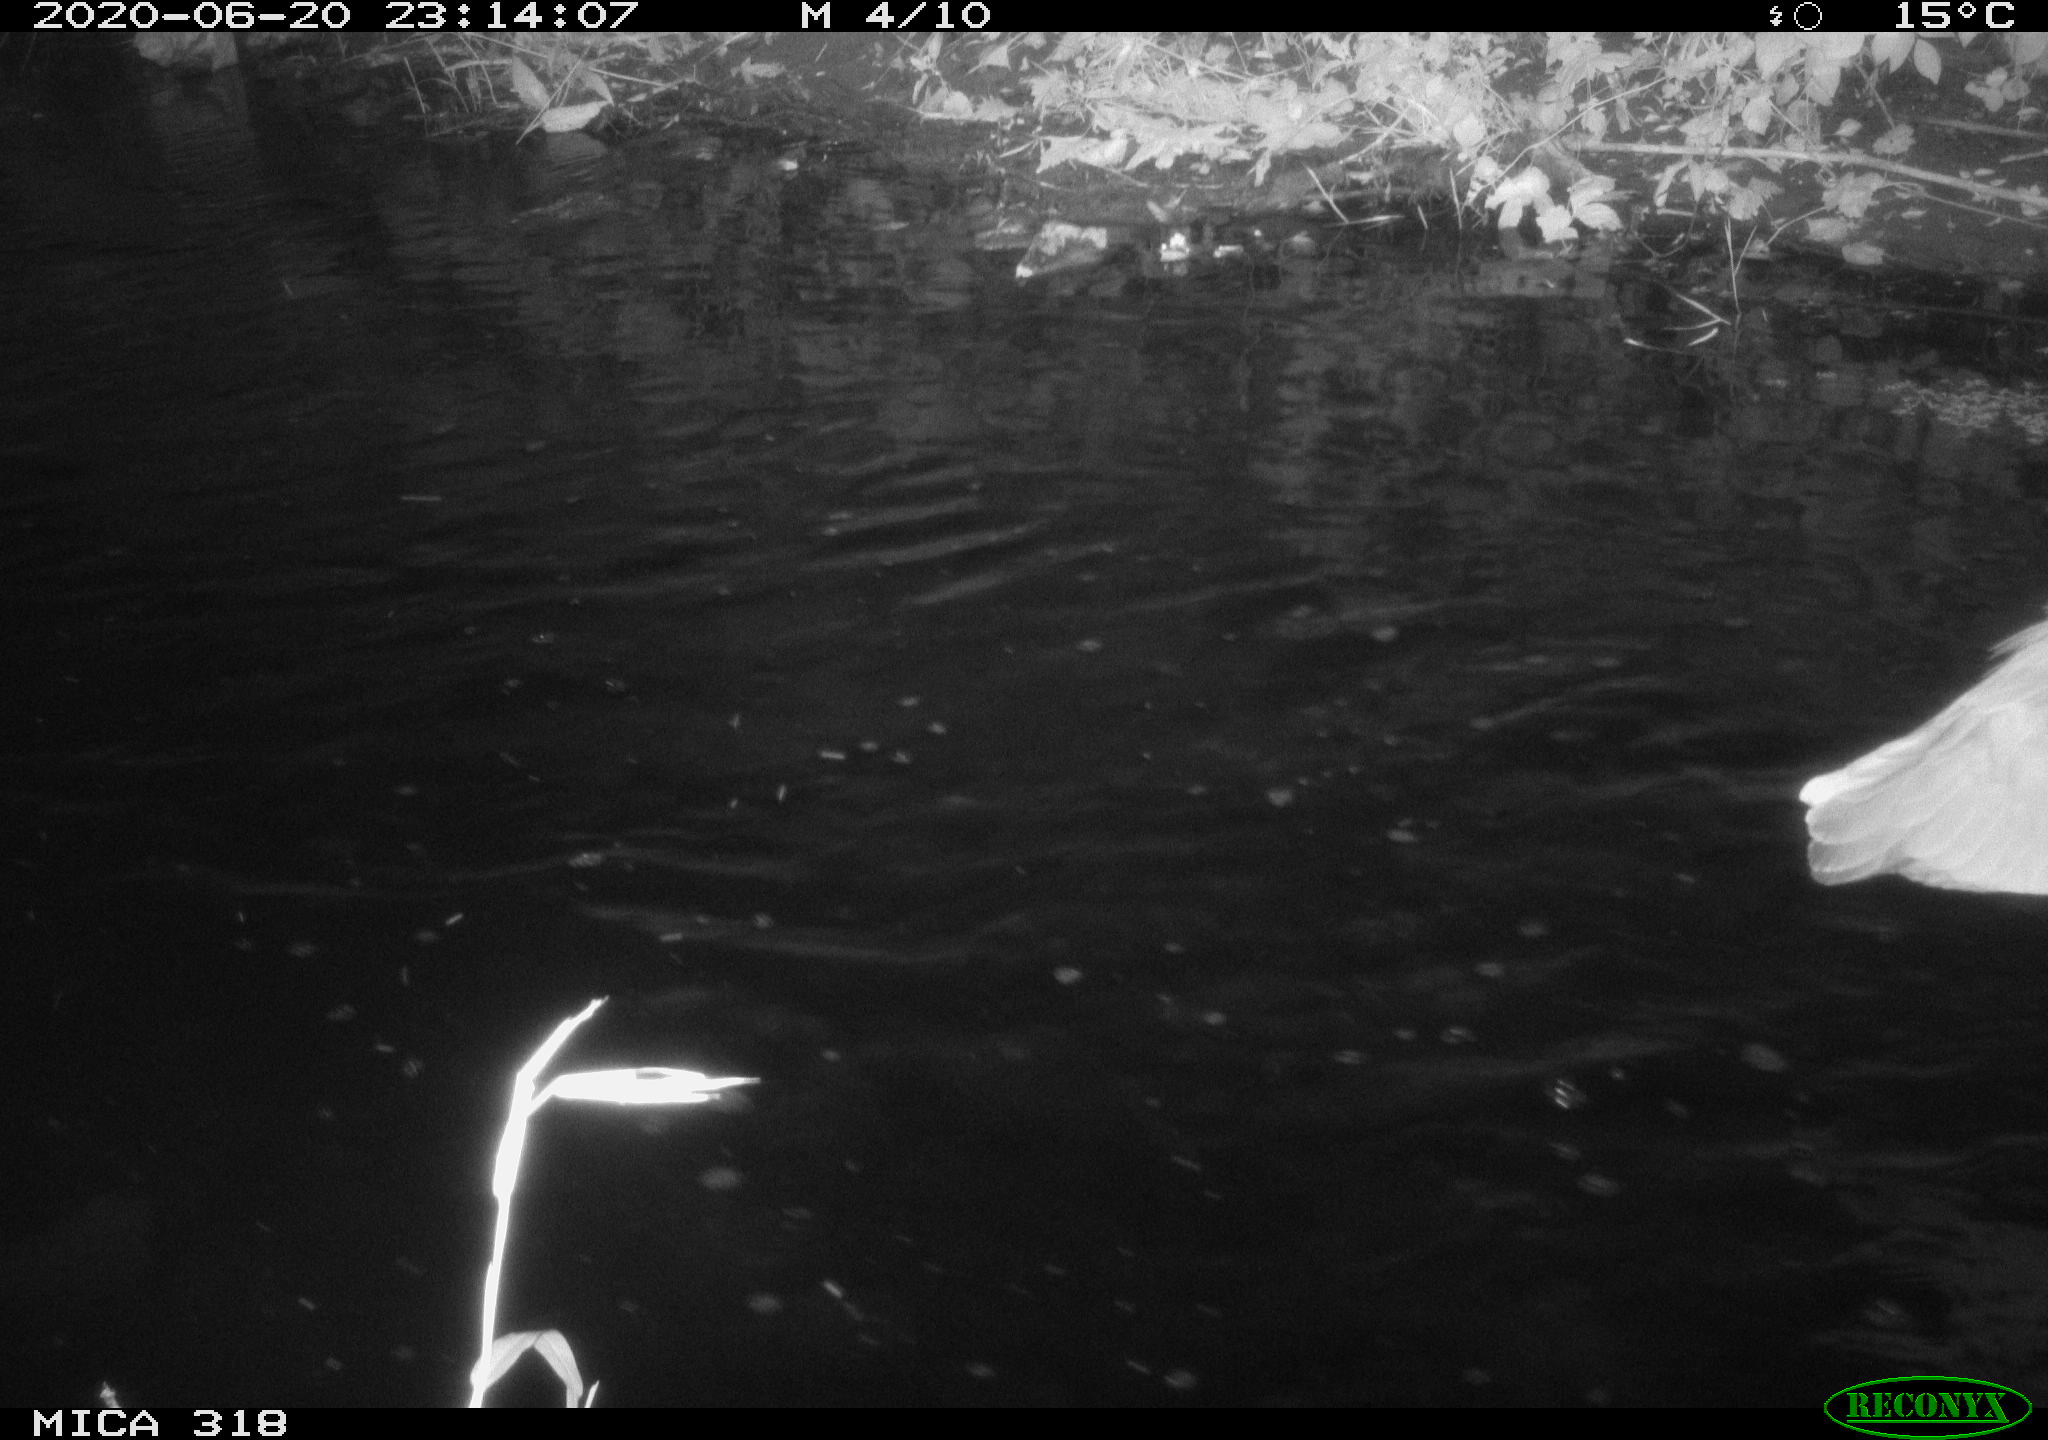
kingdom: Animalia
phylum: Chordata
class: Aves
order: Pelecaniformes
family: Ardeidae
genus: Ardea
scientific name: Ardea cinerea
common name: Grey heron
